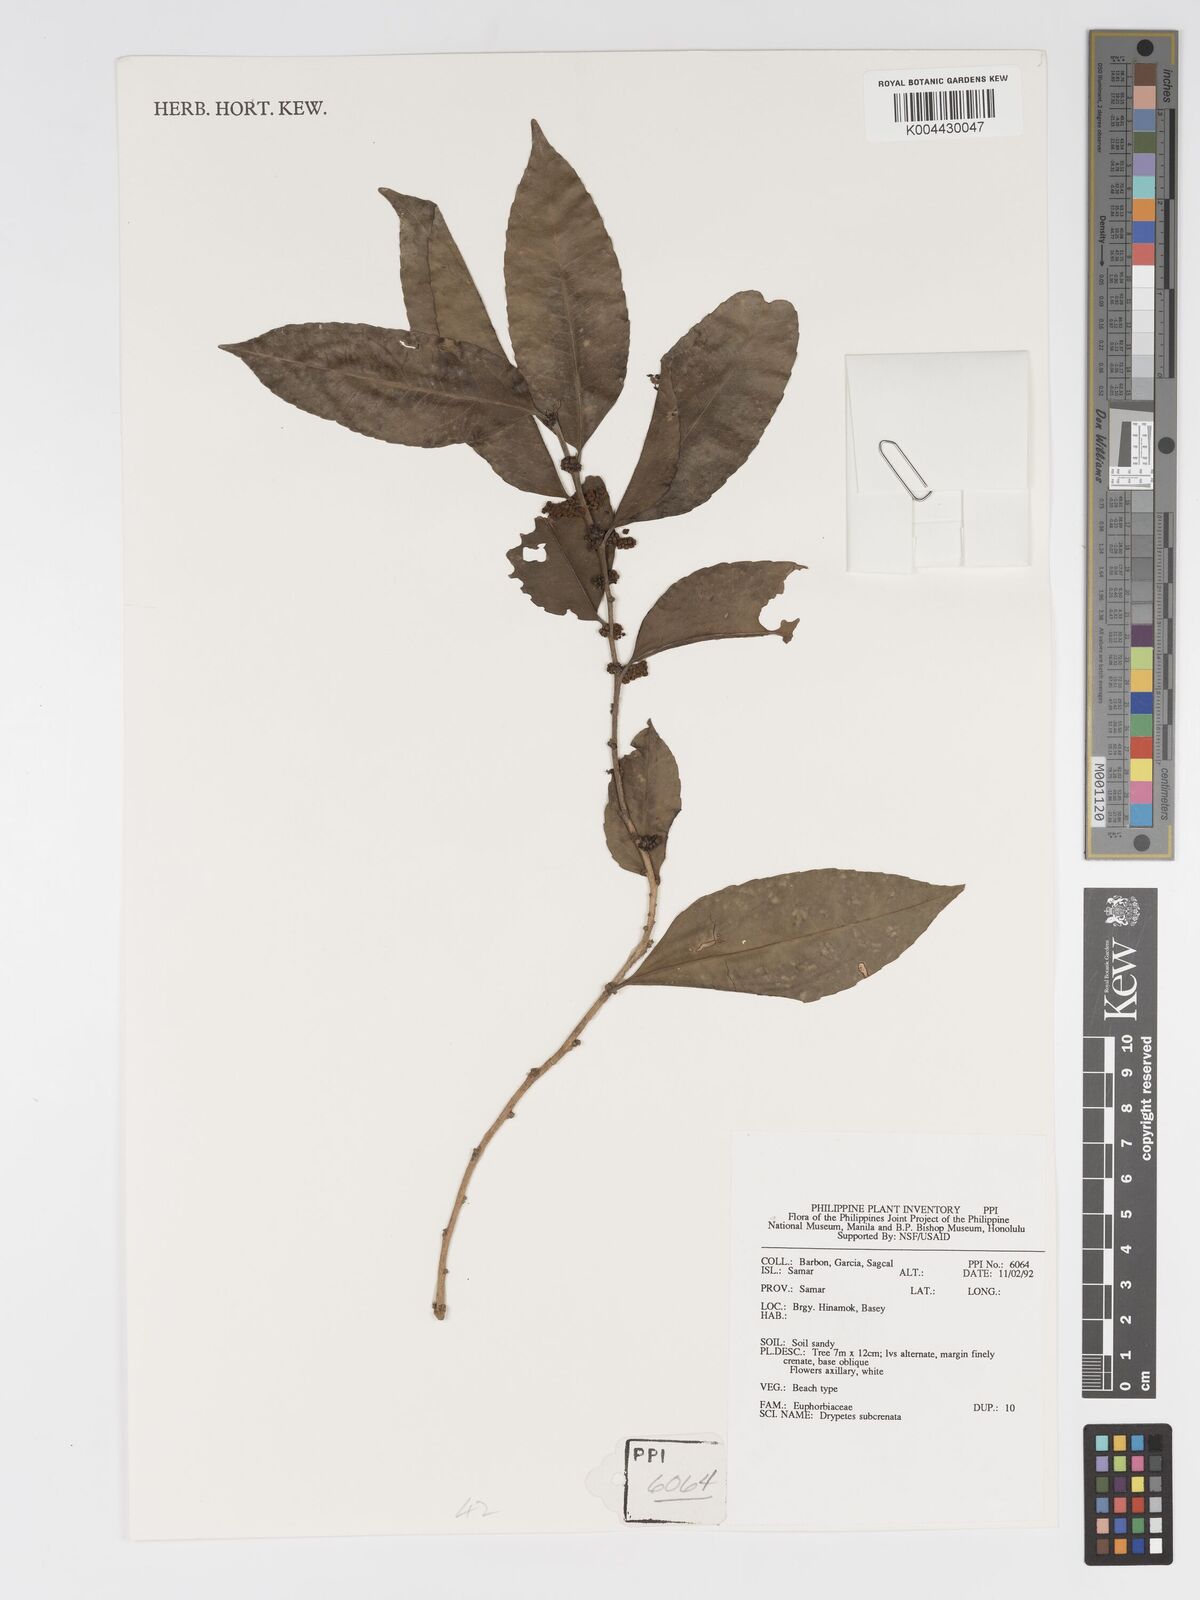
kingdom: Plantae
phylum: Tracheophyta
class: Magnoliopsida
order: Malpighiales
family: Putranjivaceae
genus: Drypetes
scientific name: Drypetes subcrenata
